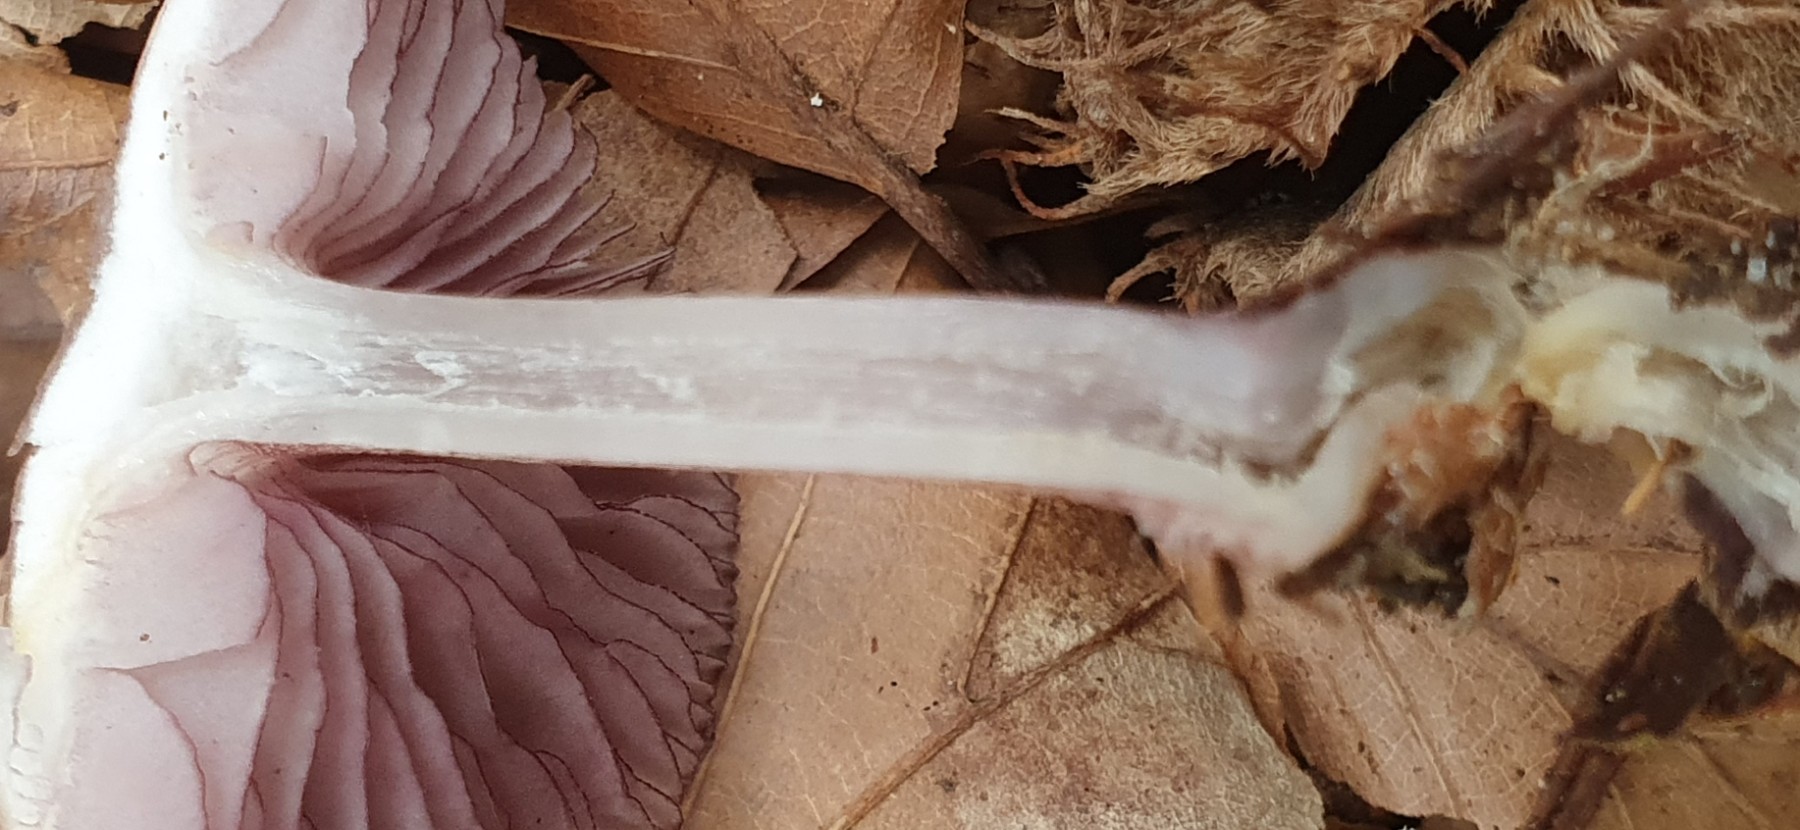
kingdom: Fungi
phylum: Basidiomycota
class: Agaricomycetes
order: Agaricales
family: Mycenaceae
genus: Mycena
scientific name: Mycena pelianthina
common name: mørkbladet huesvamp
